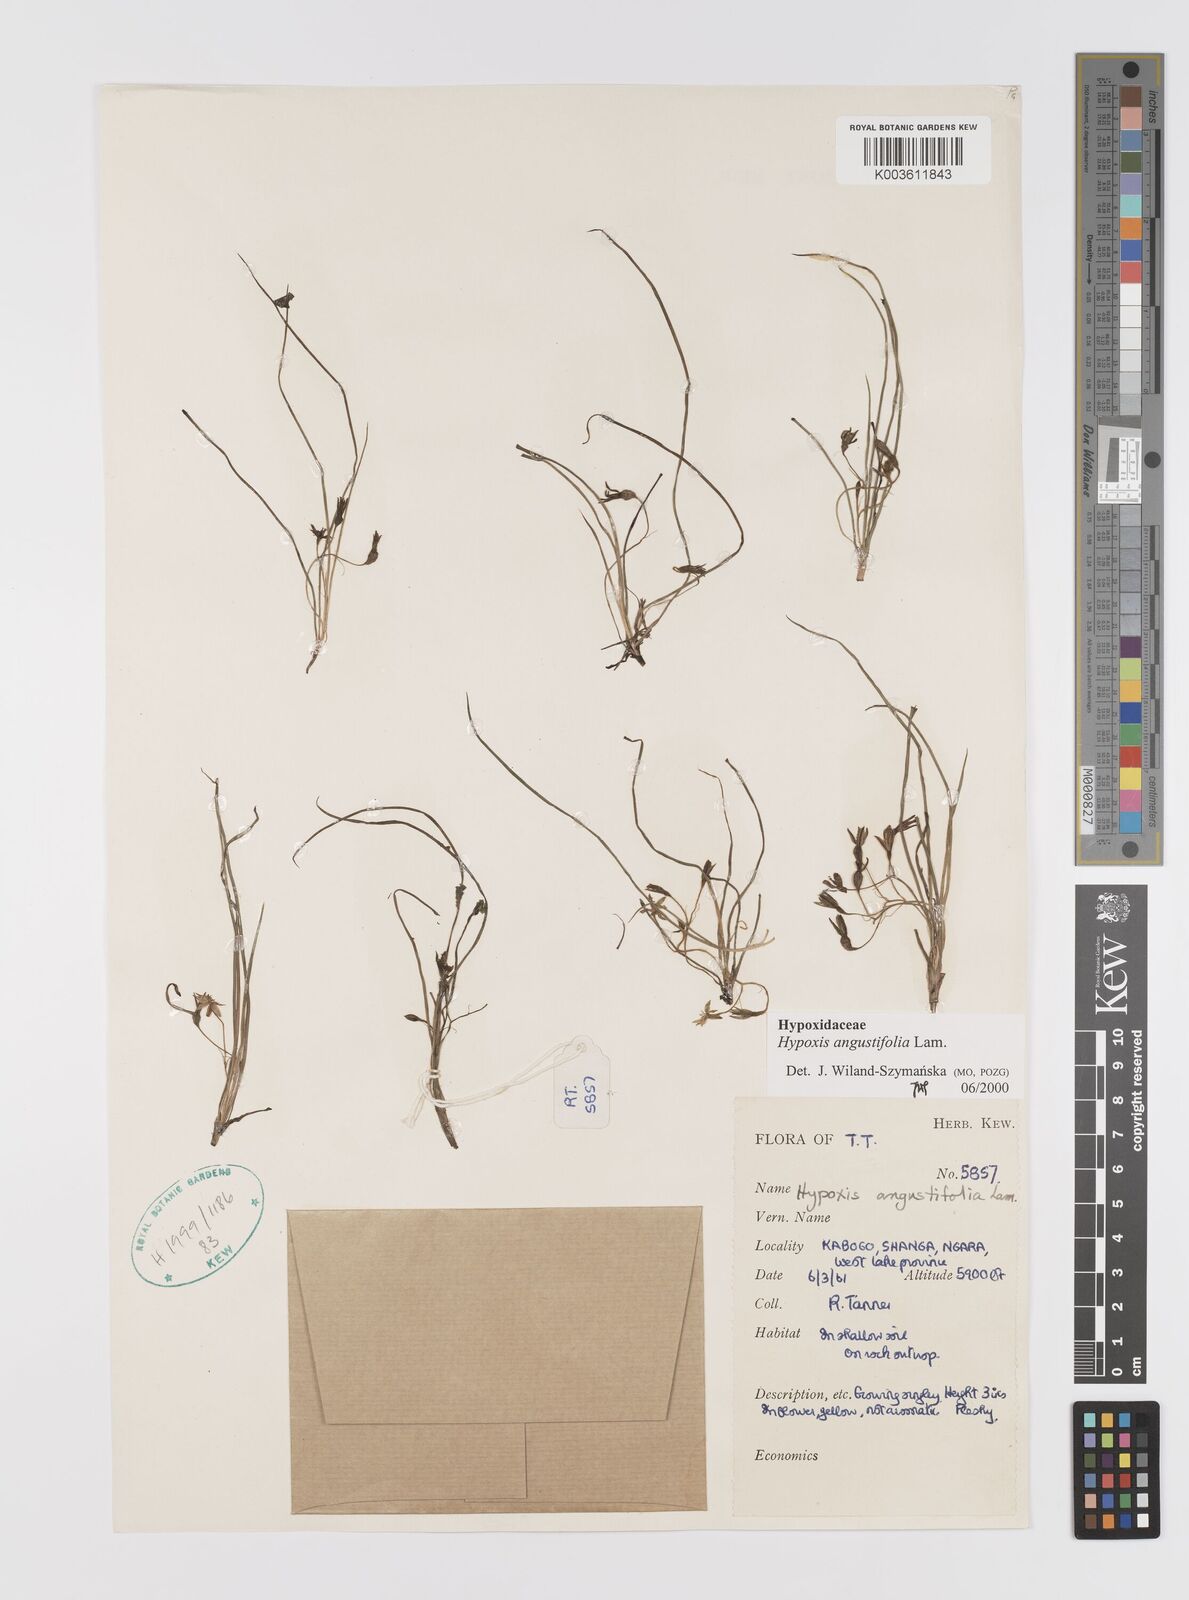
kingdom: Plantae
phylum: Tracheophyta
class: Liliopsida
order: Asparagales
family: Hypoxidaceae
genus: Hypoxis
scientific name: Hypoxis angustifolia
